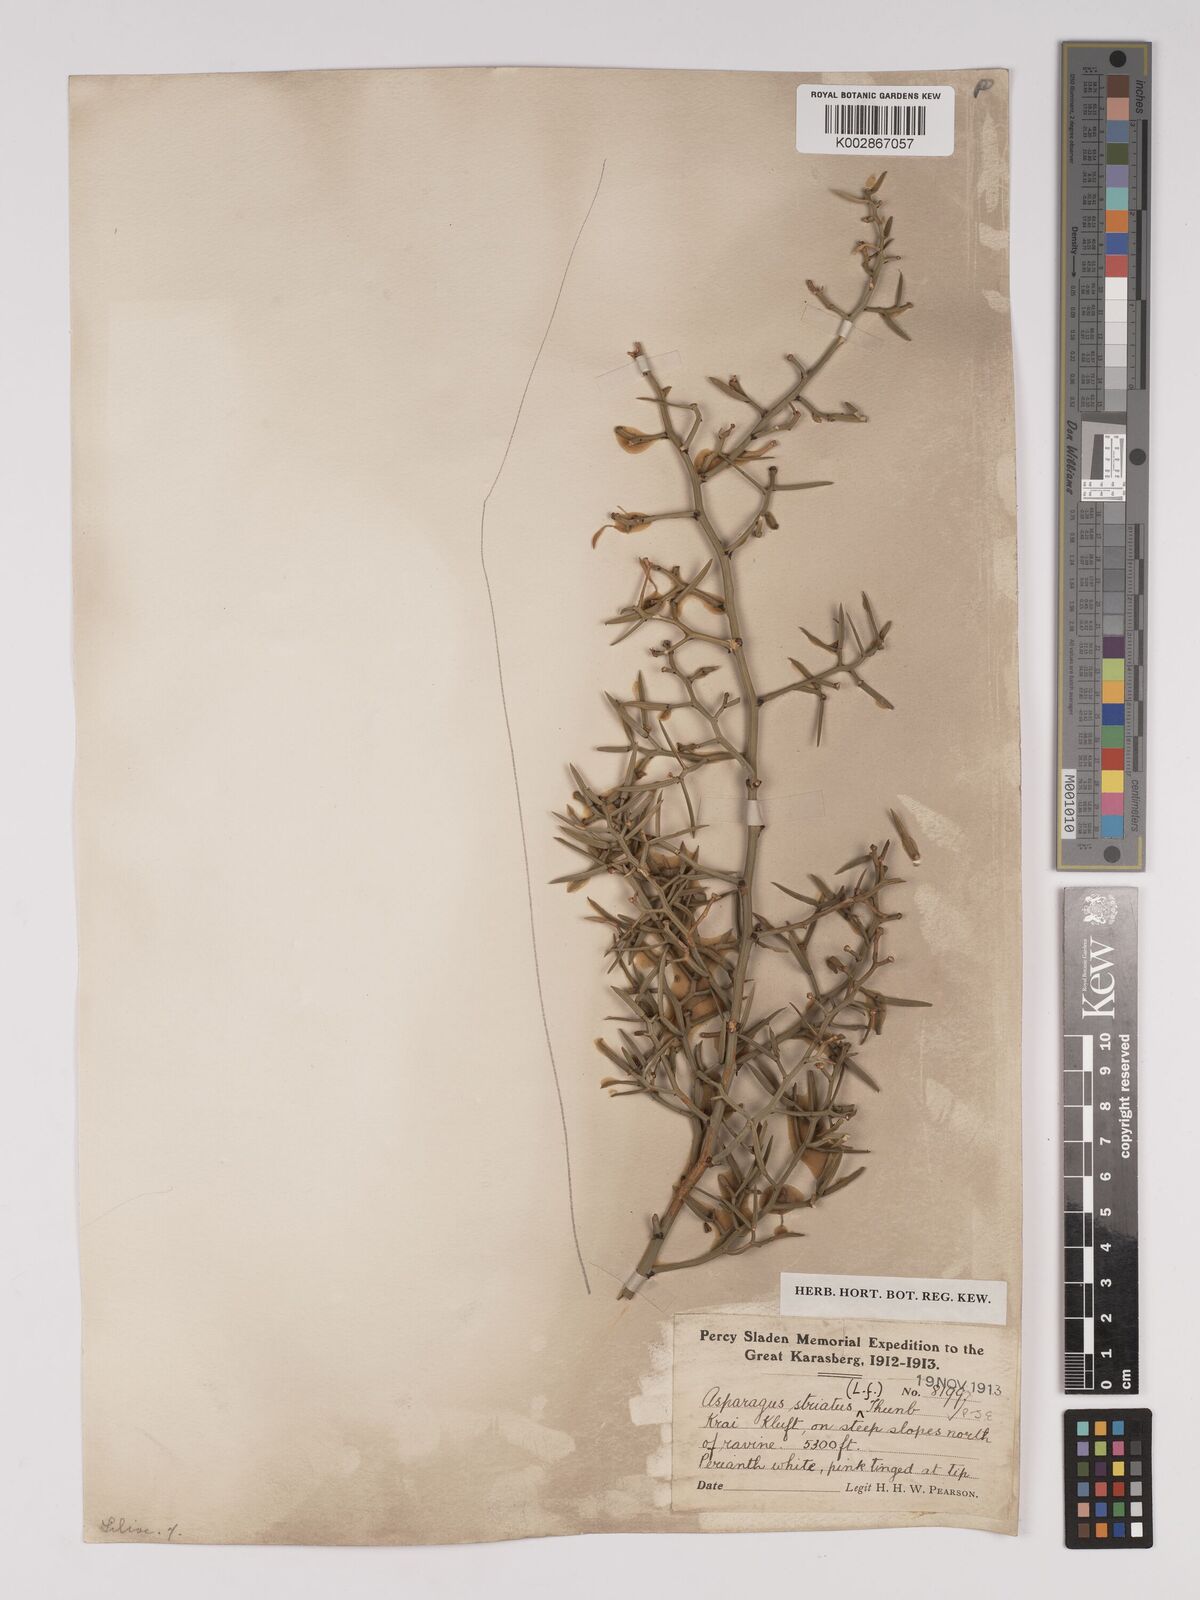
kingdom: Plantae
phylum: Tracheophyta
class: Liliopsida
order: Asparagales
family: Asparagaceae
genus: Asparagus
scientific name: Asparagus striatus
